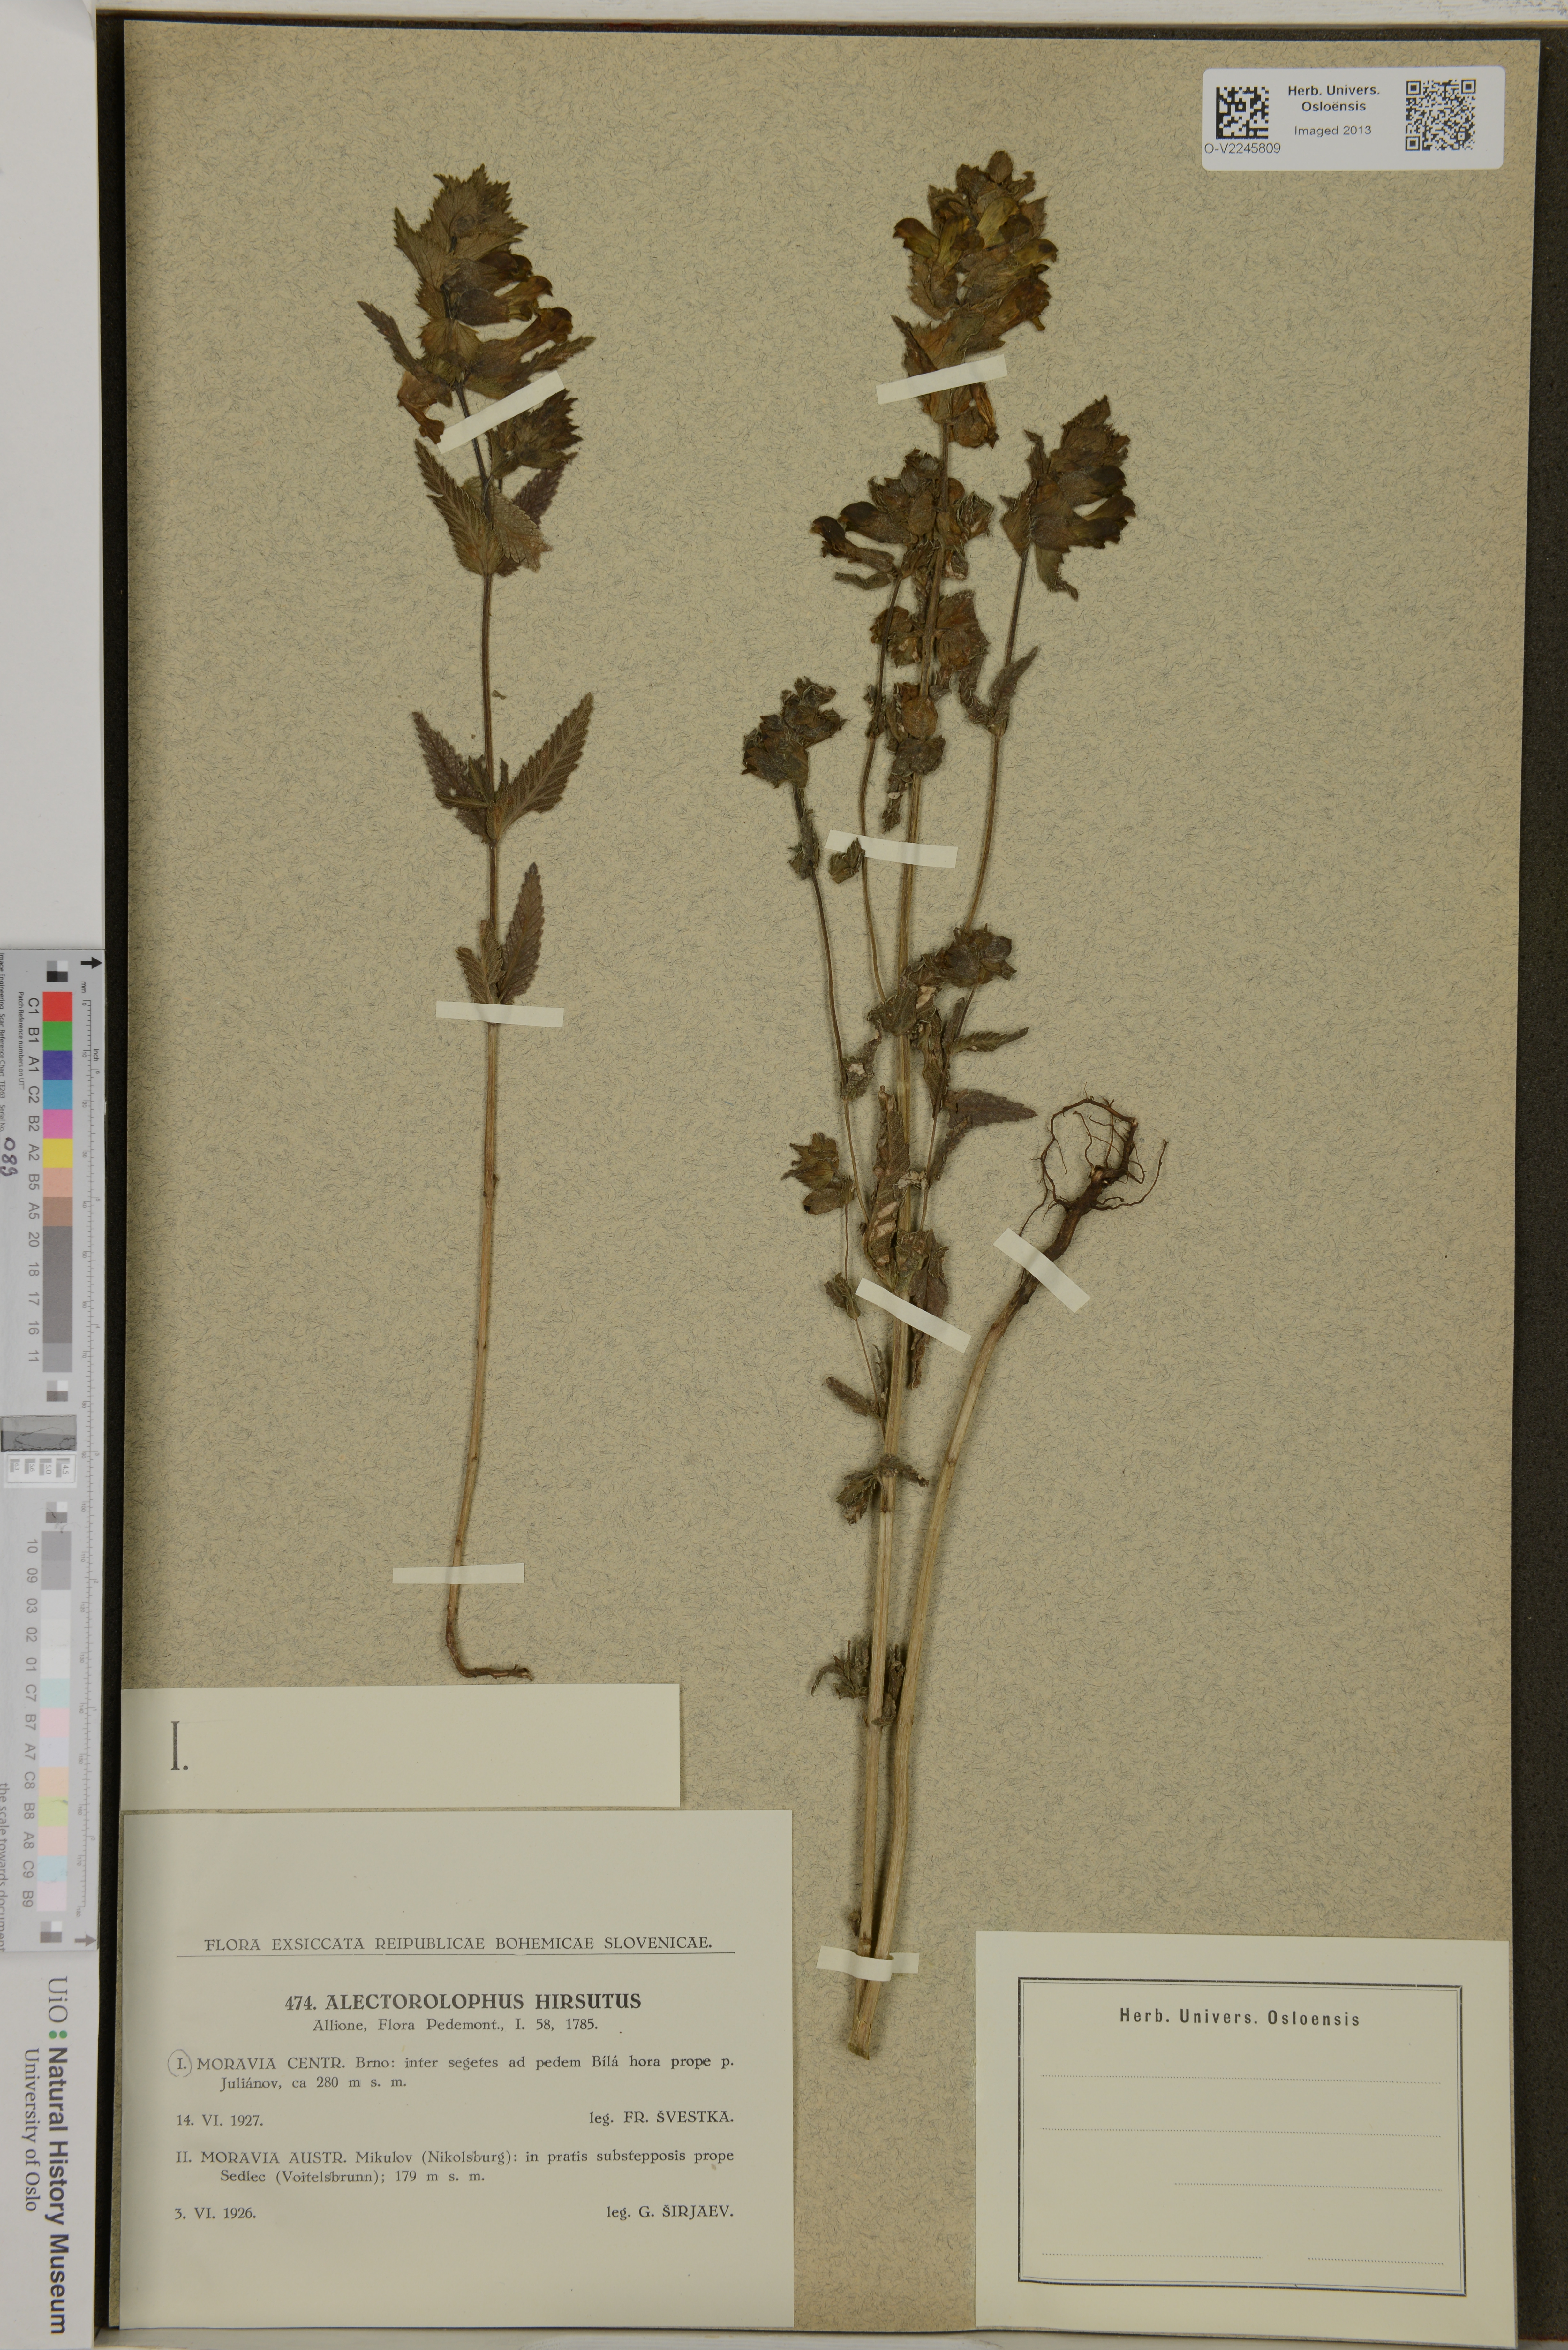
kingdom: Plantae
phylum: Tracheophyta
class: Magnoliopsida
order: Lamiales
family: Orobanchaceae
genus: Rhinanthus
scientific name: Rhinanthus alectorolophus
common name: Greater yellow-rattle
